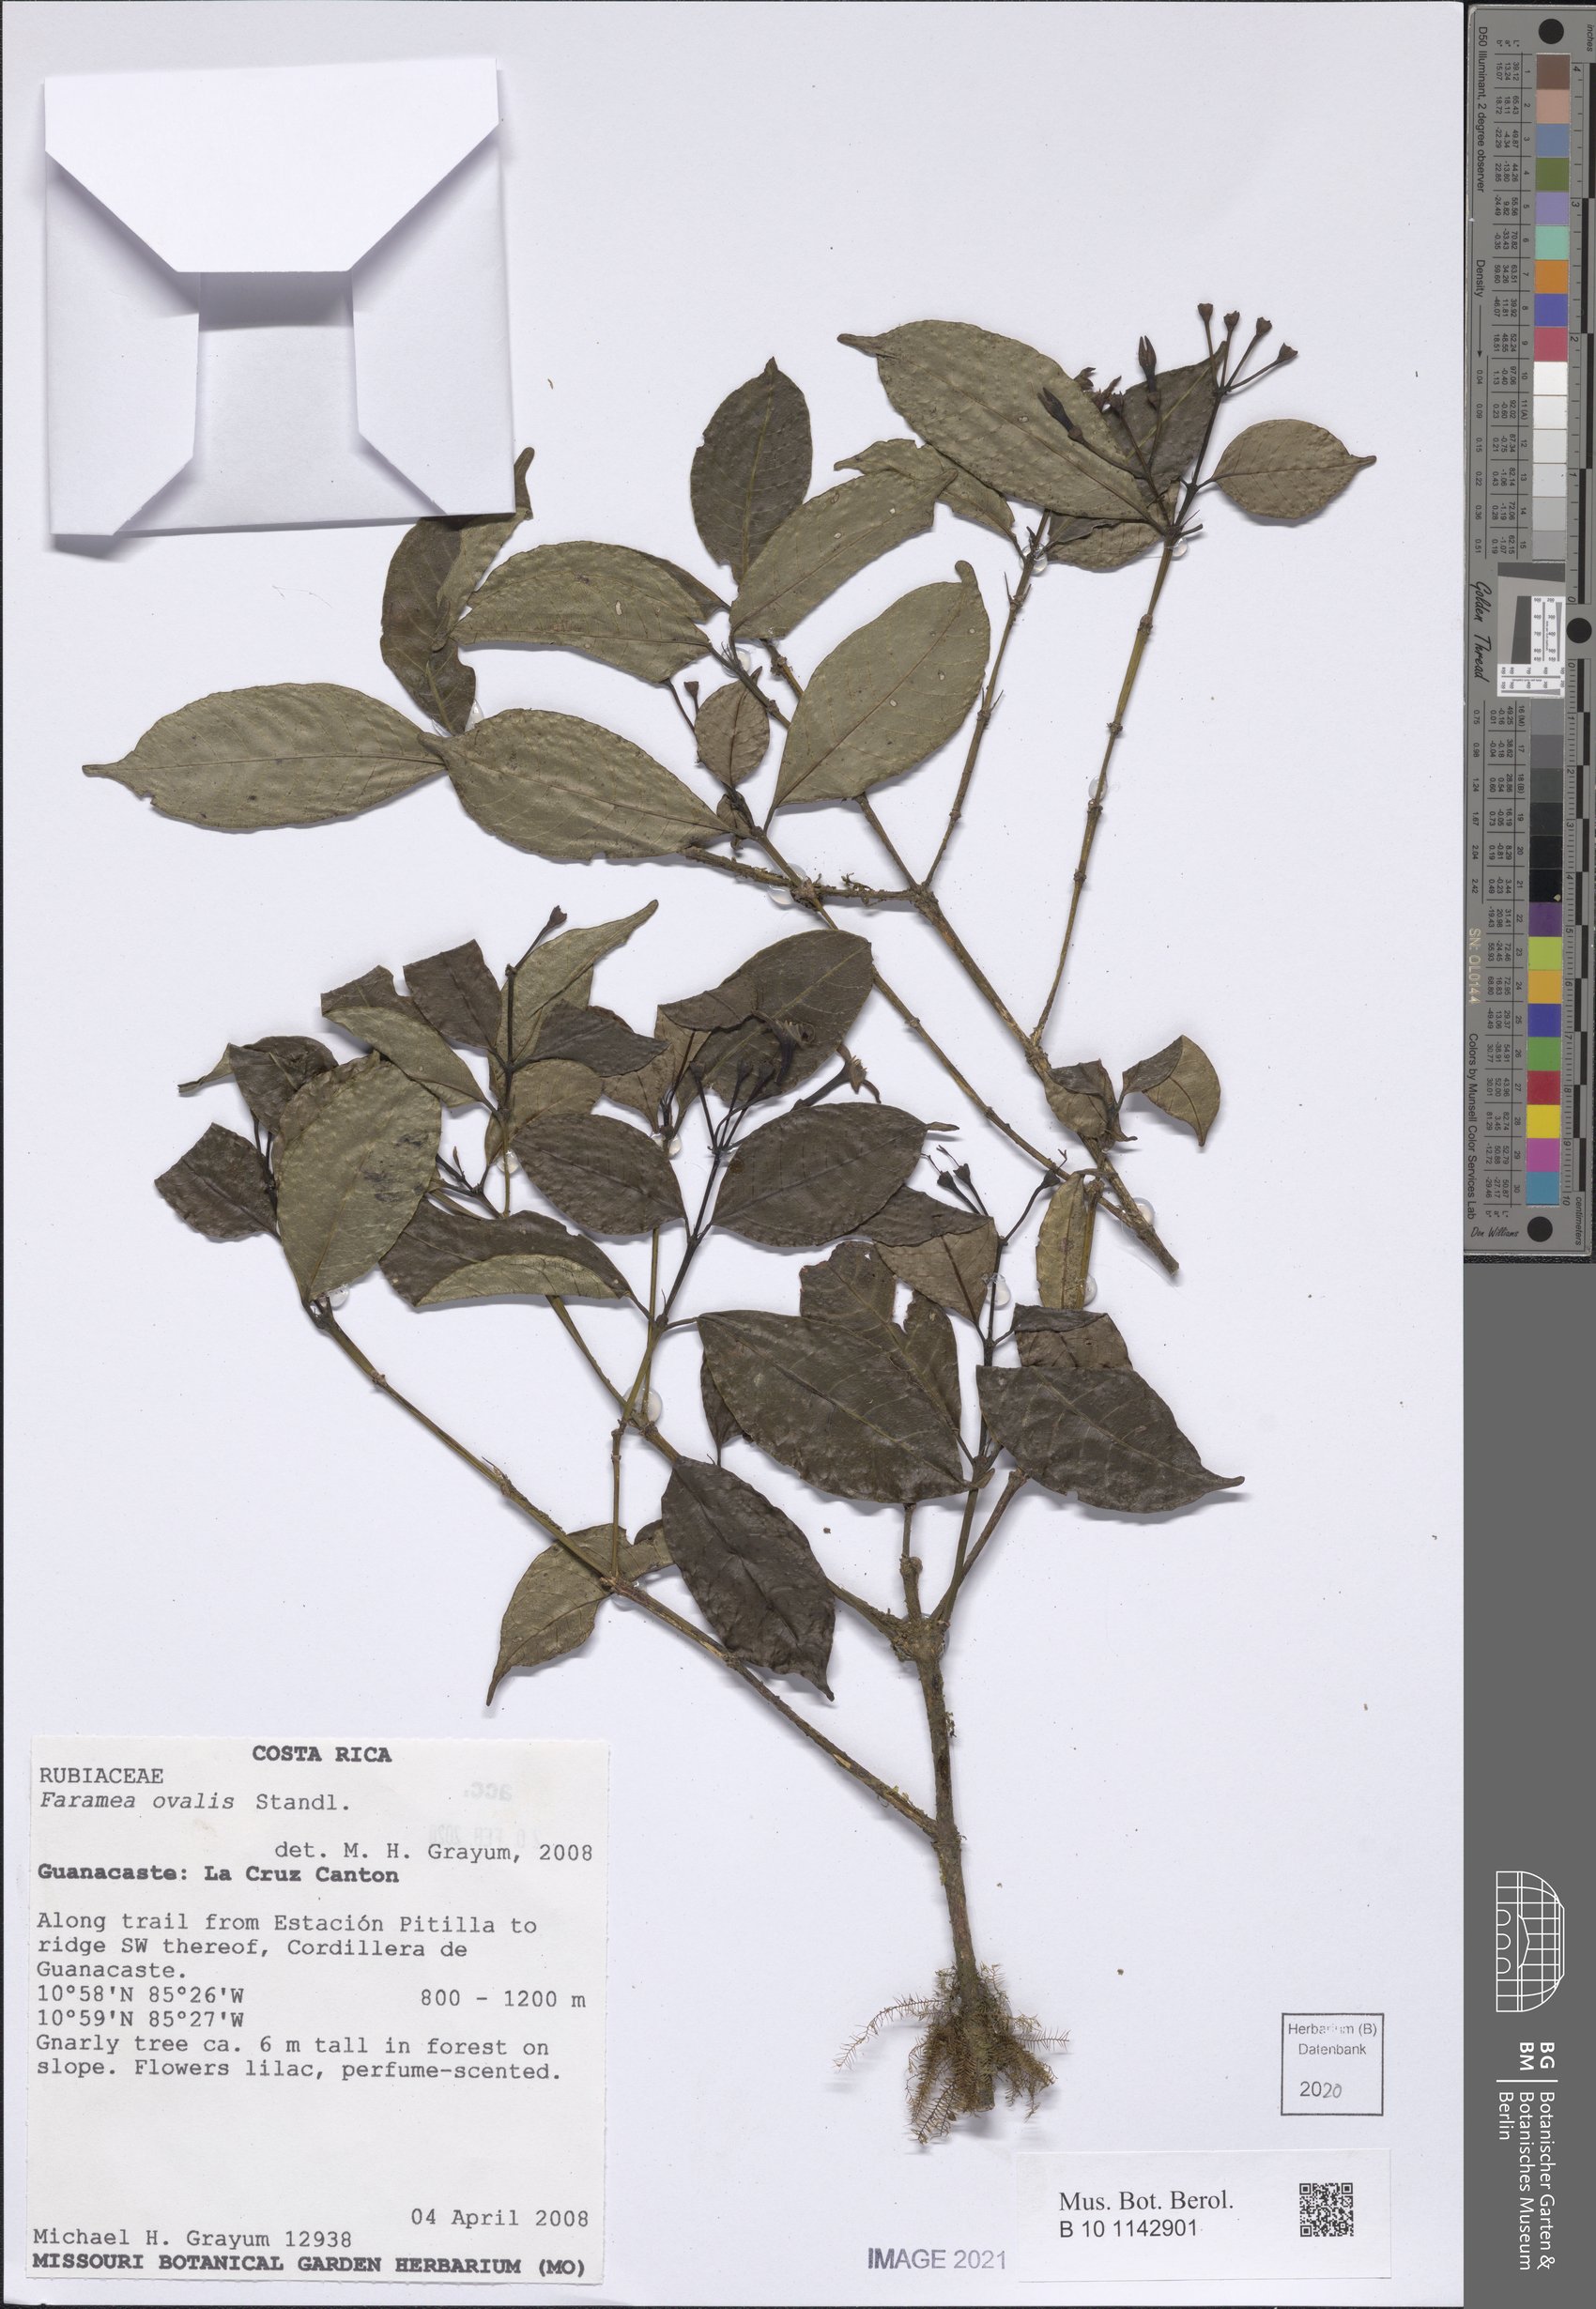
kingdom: Plantae
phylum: Tracheophyta
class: Magnoliopsida
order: Gentianales
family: Rubiaceae
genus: Faramea
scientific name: Faramea ovalis
